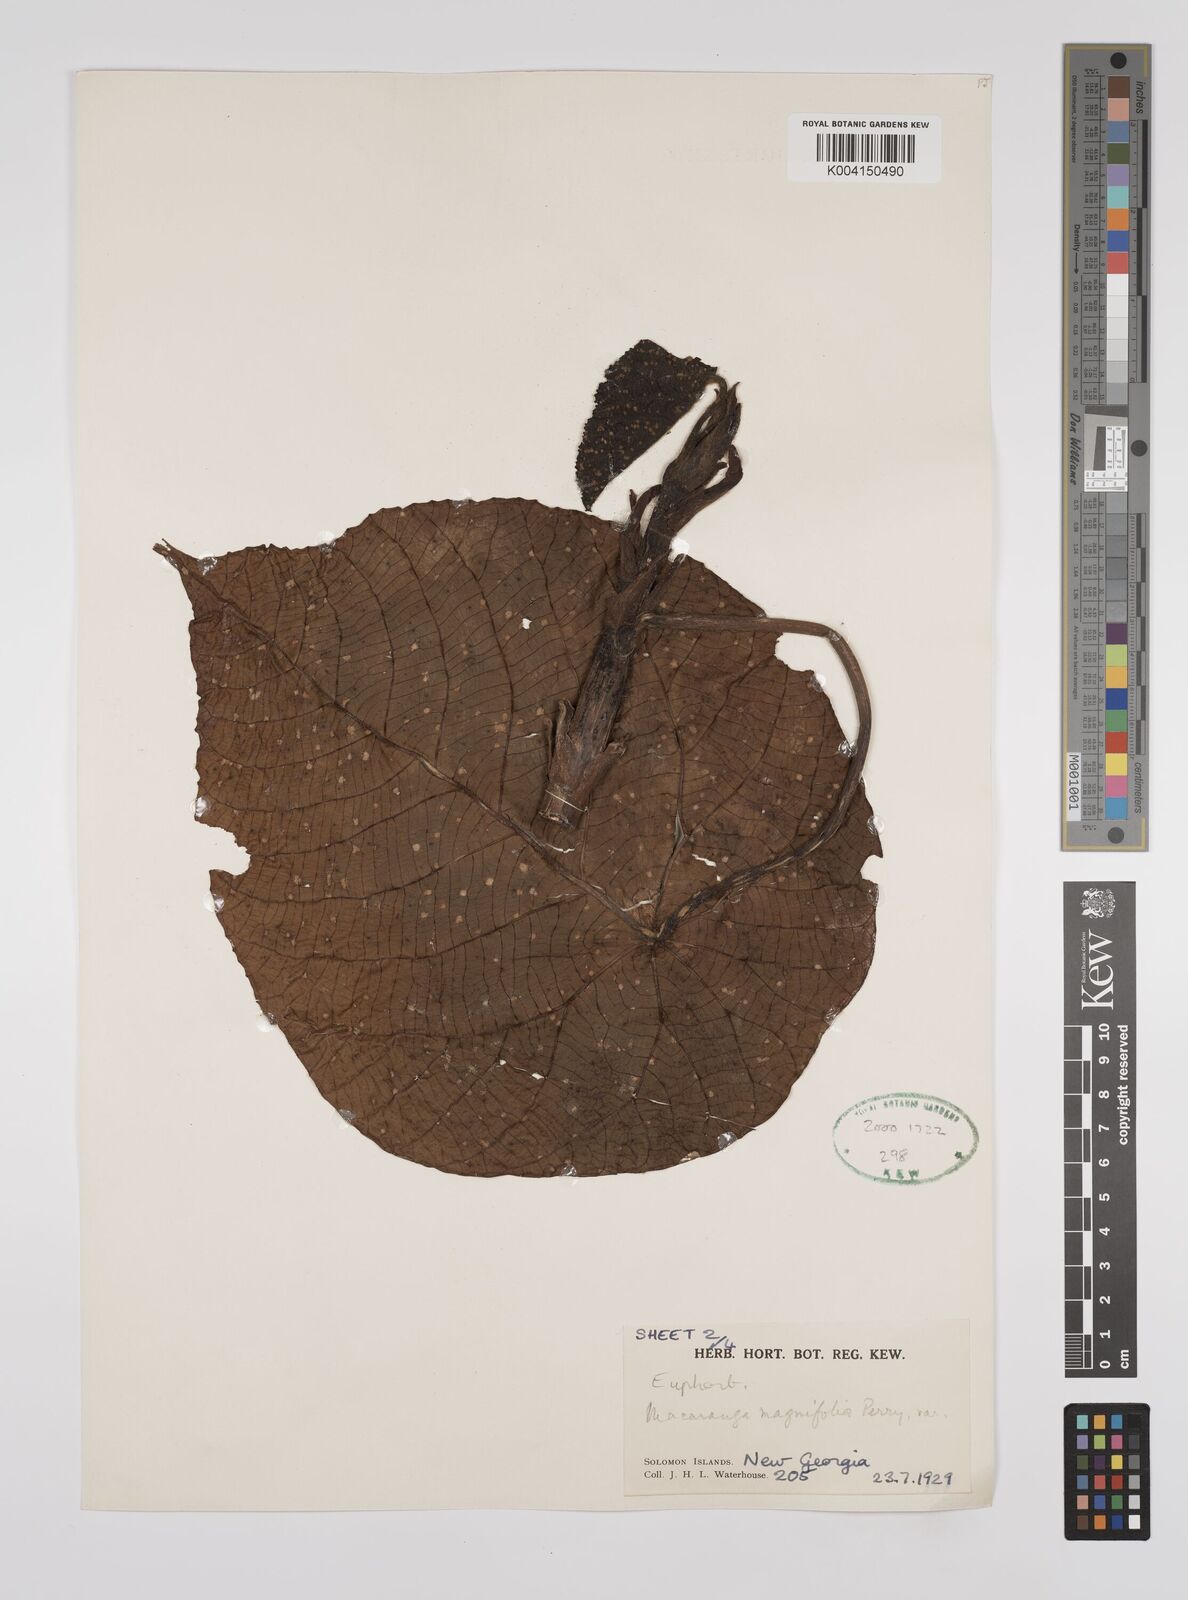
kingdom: Plantae
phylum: Tracheophyta
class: Magnoliopsida
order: Malpighiales
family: Euphorbiaceae
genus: Macaranga
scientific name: Macaranga magnifolia
